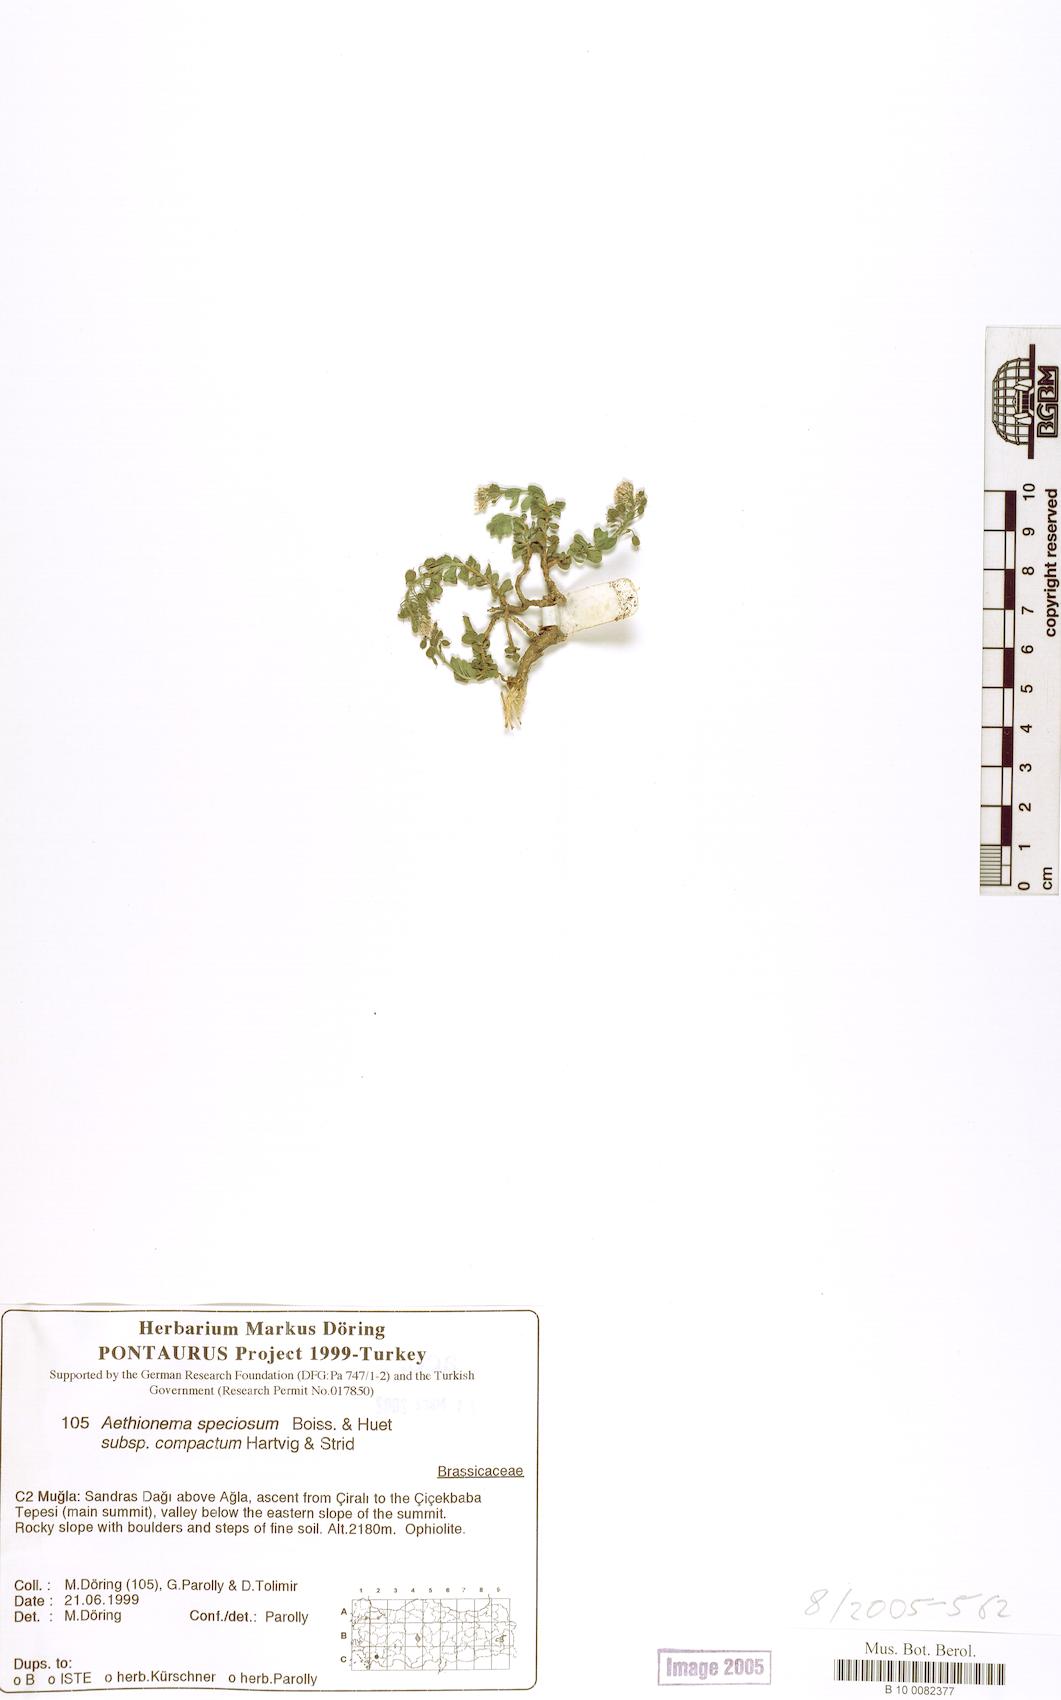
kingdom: Plantae
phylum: Tracheophyta
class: Magnoliopsida
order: Brassicales
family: Brassicaceae
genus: Aethionema
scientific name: Aethionema compactum
